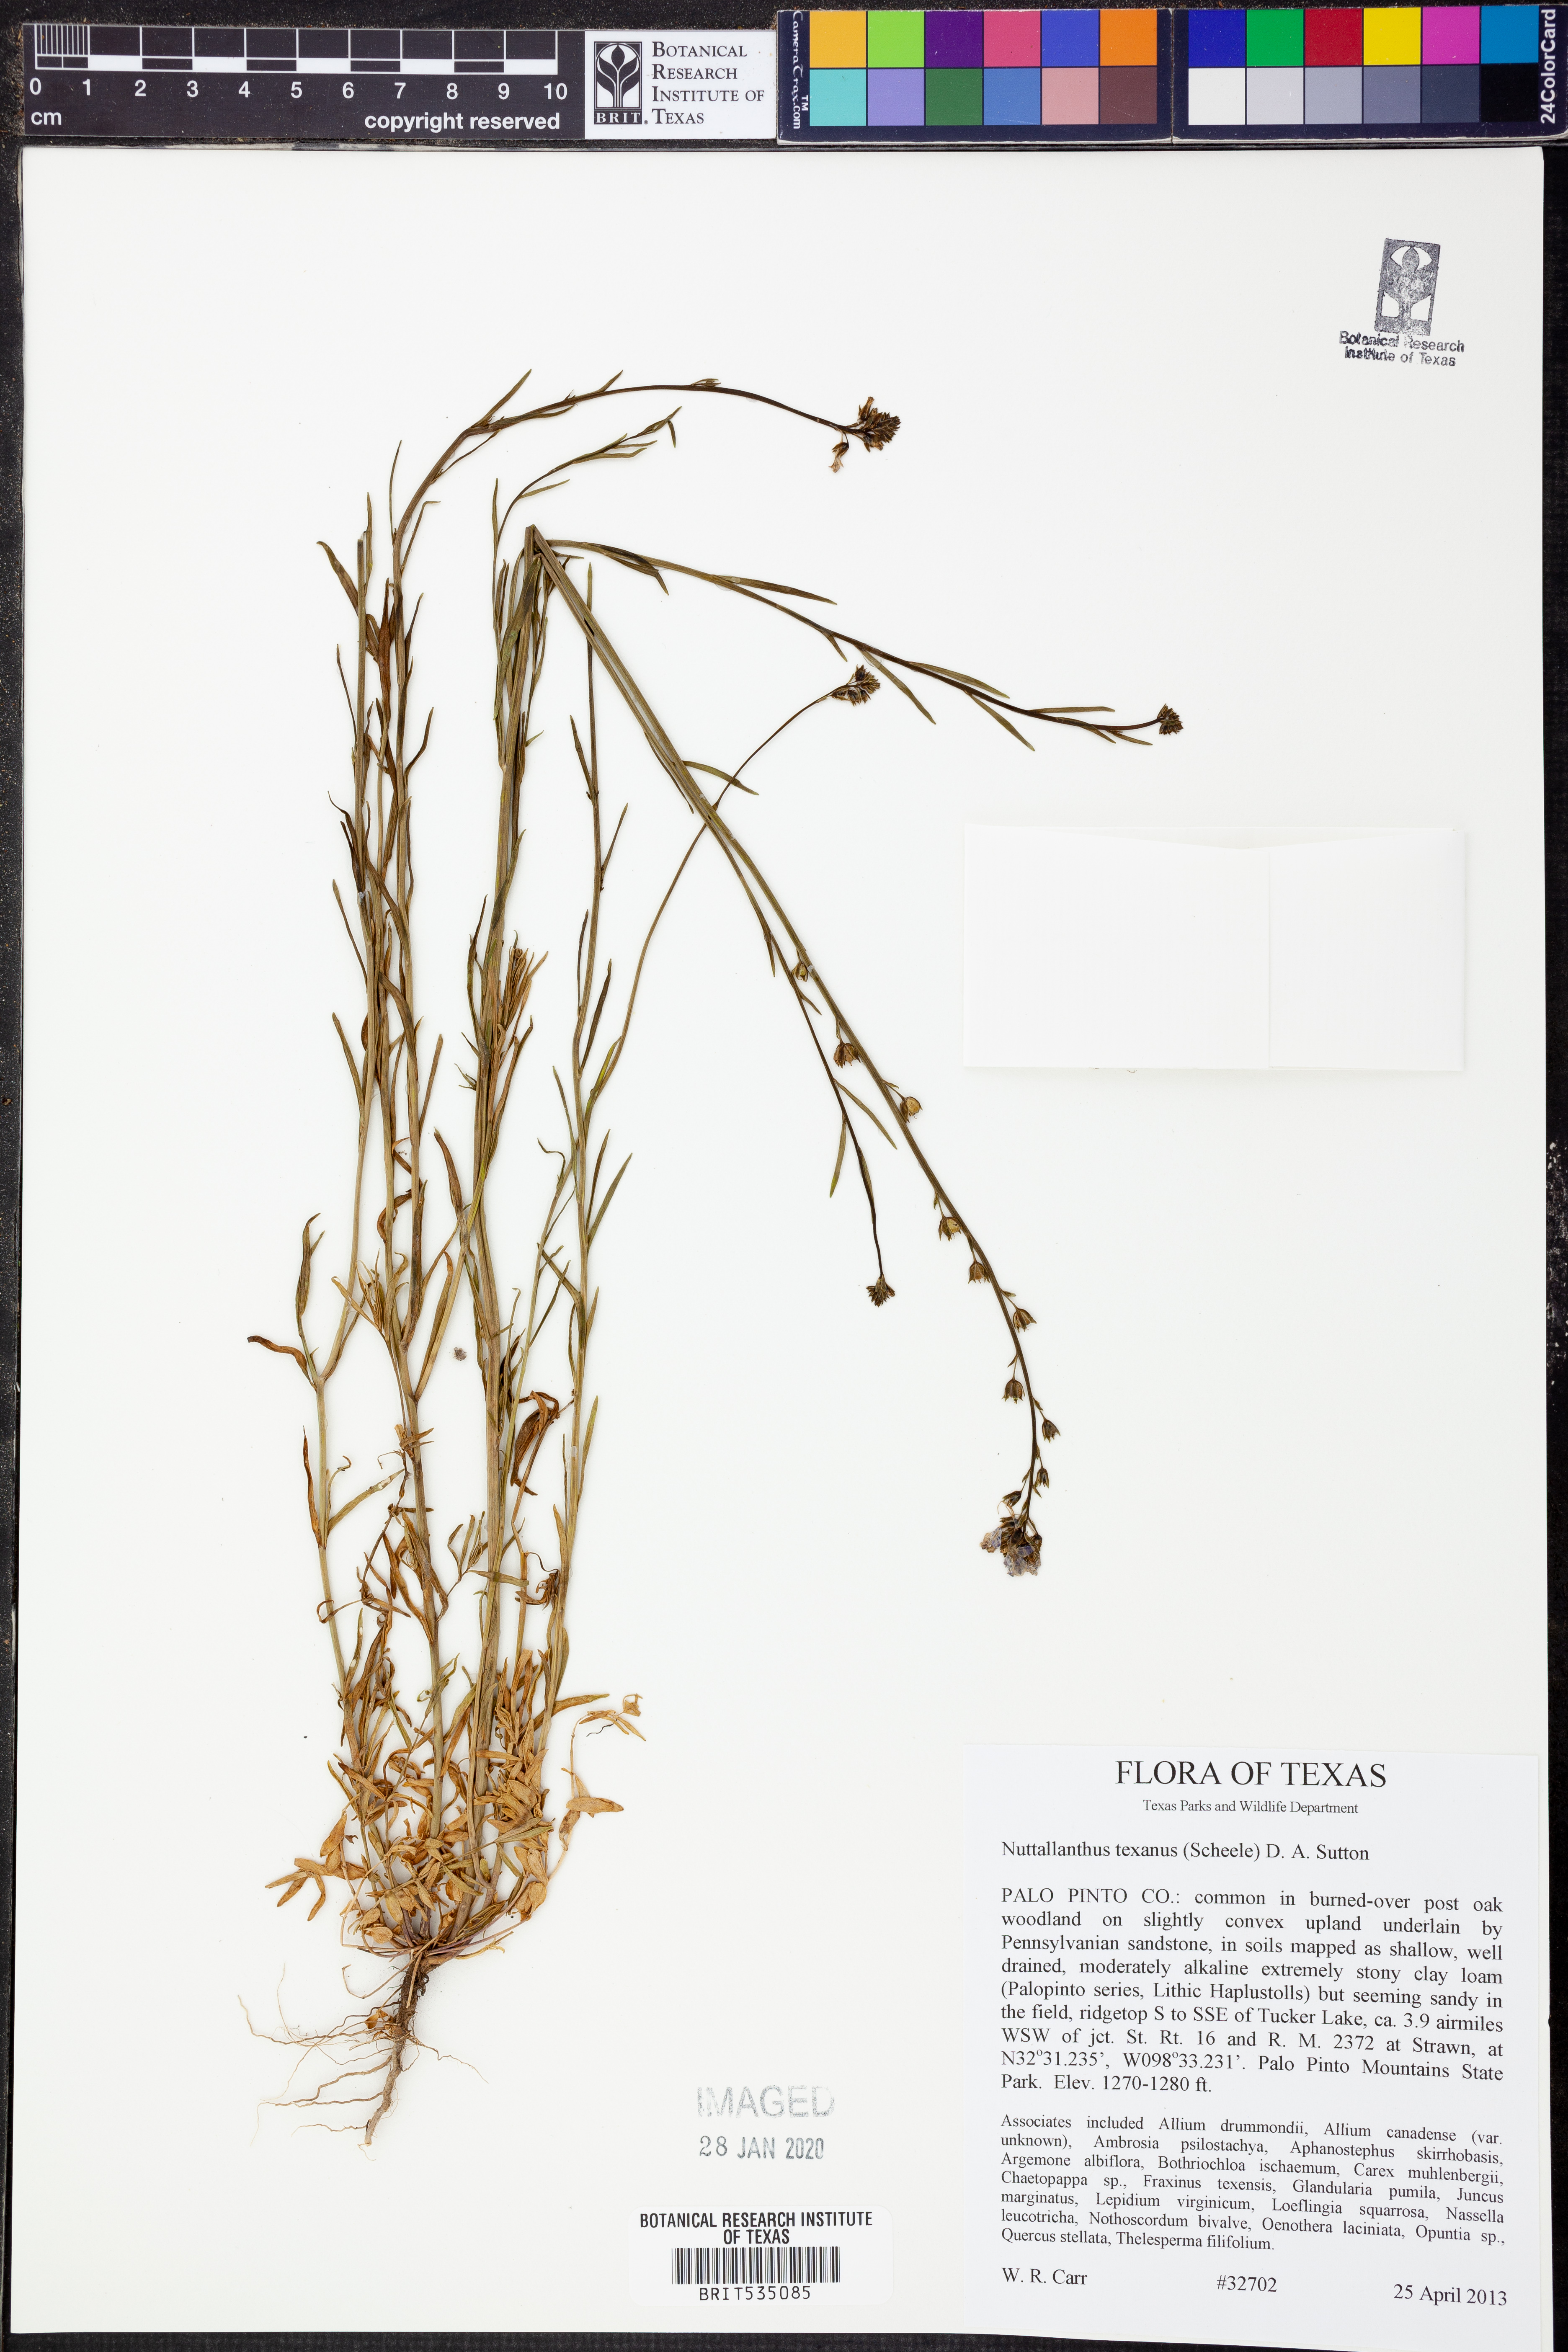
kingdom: Plantae
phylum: Tracheophyta
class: Magnoliopsida
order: Lamiales
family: Plantaginaceae
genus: Nuttallanthus
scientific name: Nuttallanthus texanus
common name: Texas toadflax
